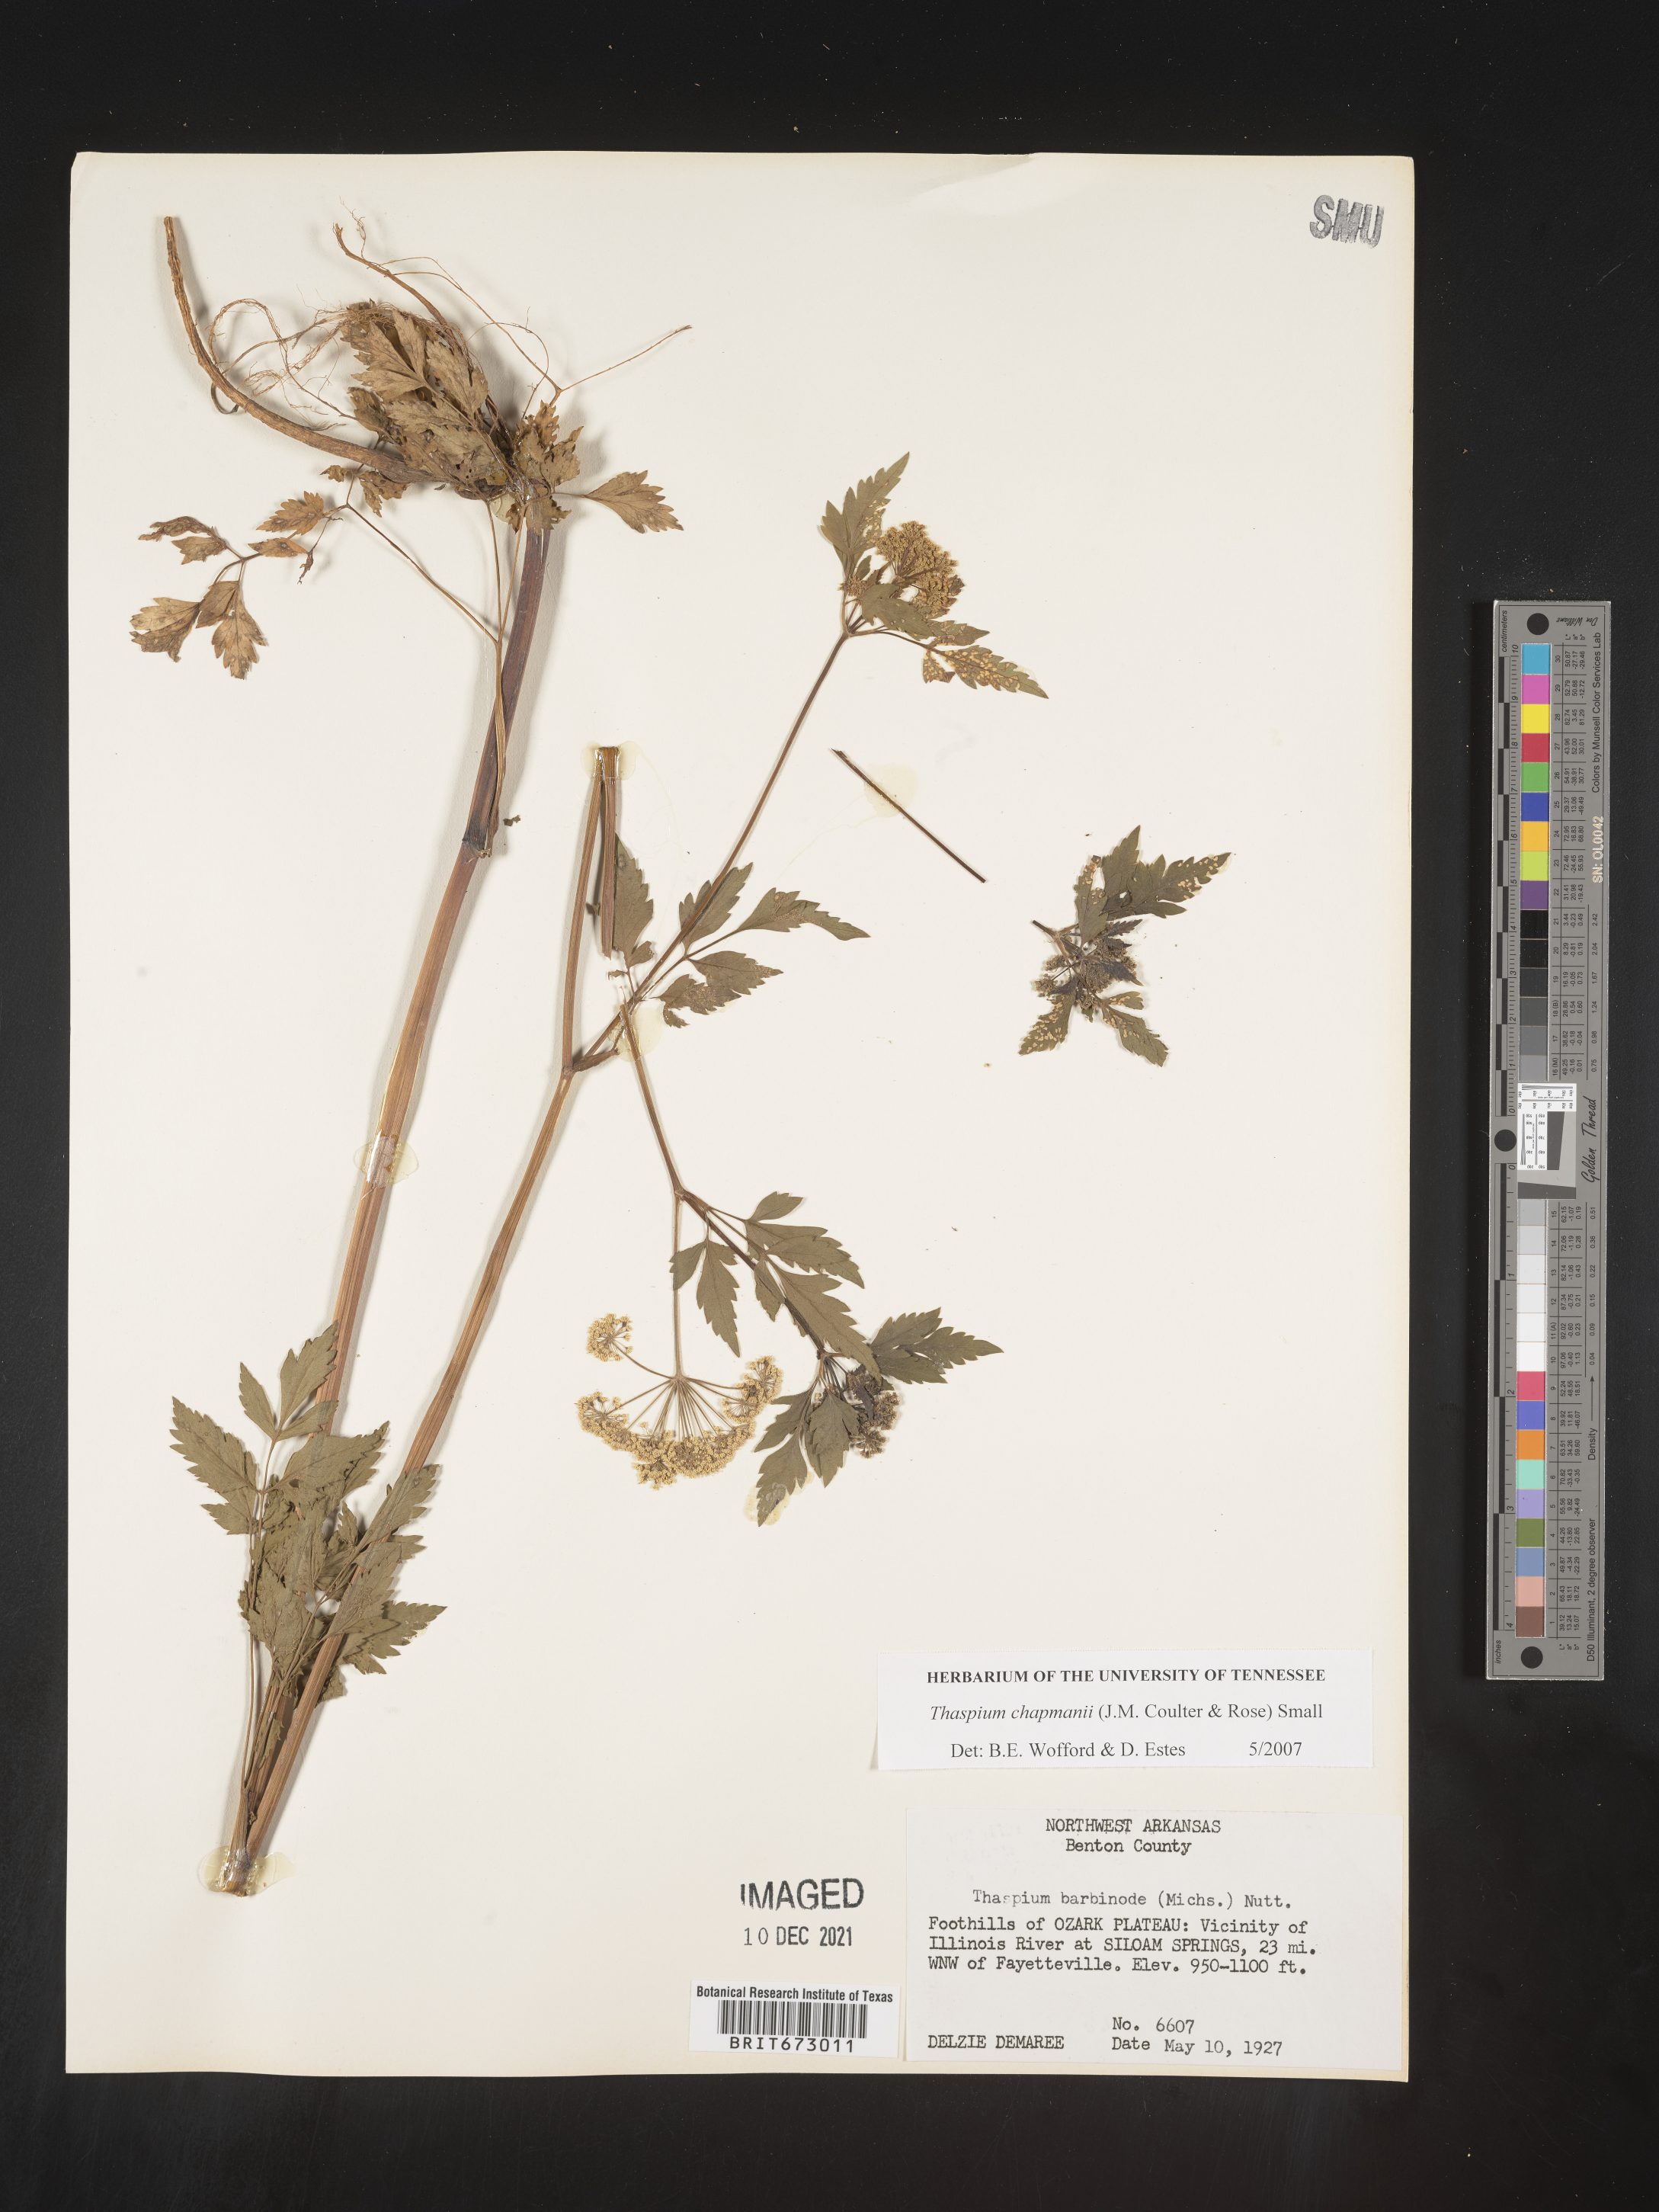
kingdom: Plantae
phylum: Tracheophyta
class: Magnoliopsida
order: Apiales
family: Apiaceae
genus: Thaspium
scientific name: Thaspium barbinode
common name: Bearded meadow-parsnip
